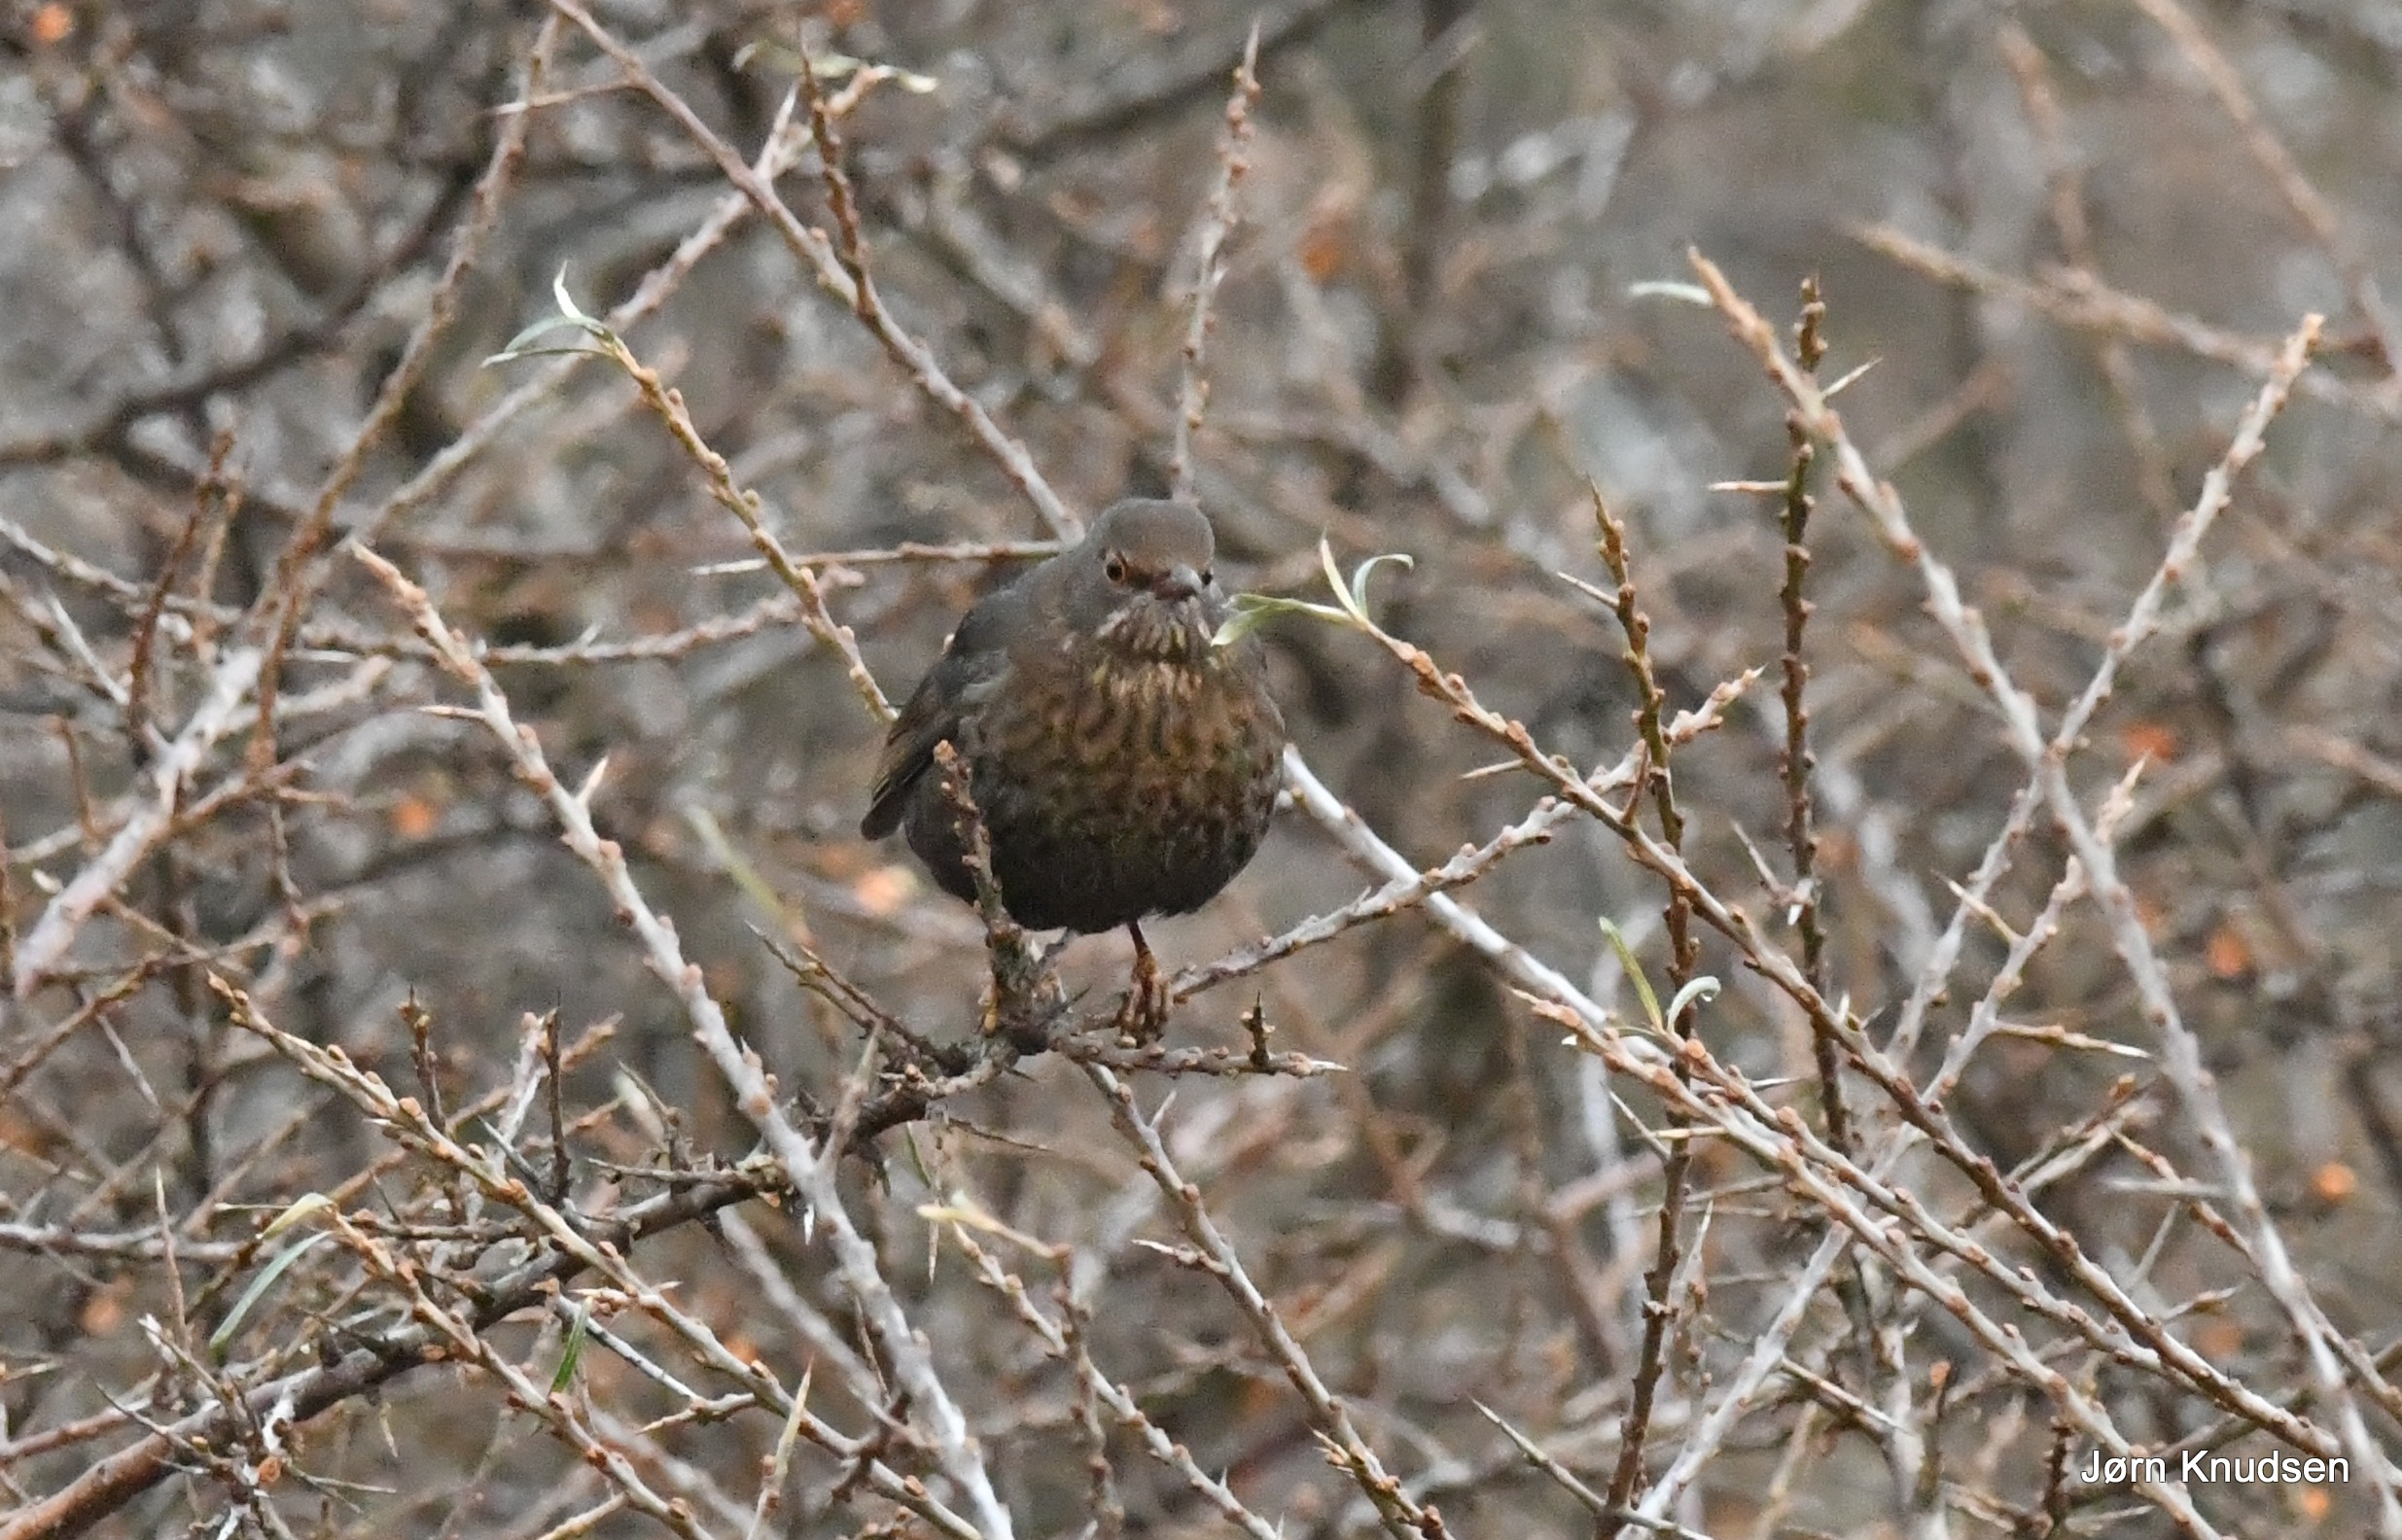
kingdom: Animalia
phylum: Chordata
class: Aves
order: Passeriformes
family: Turdidae
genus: Turdus
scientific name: Turdus merula
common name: Solsort
